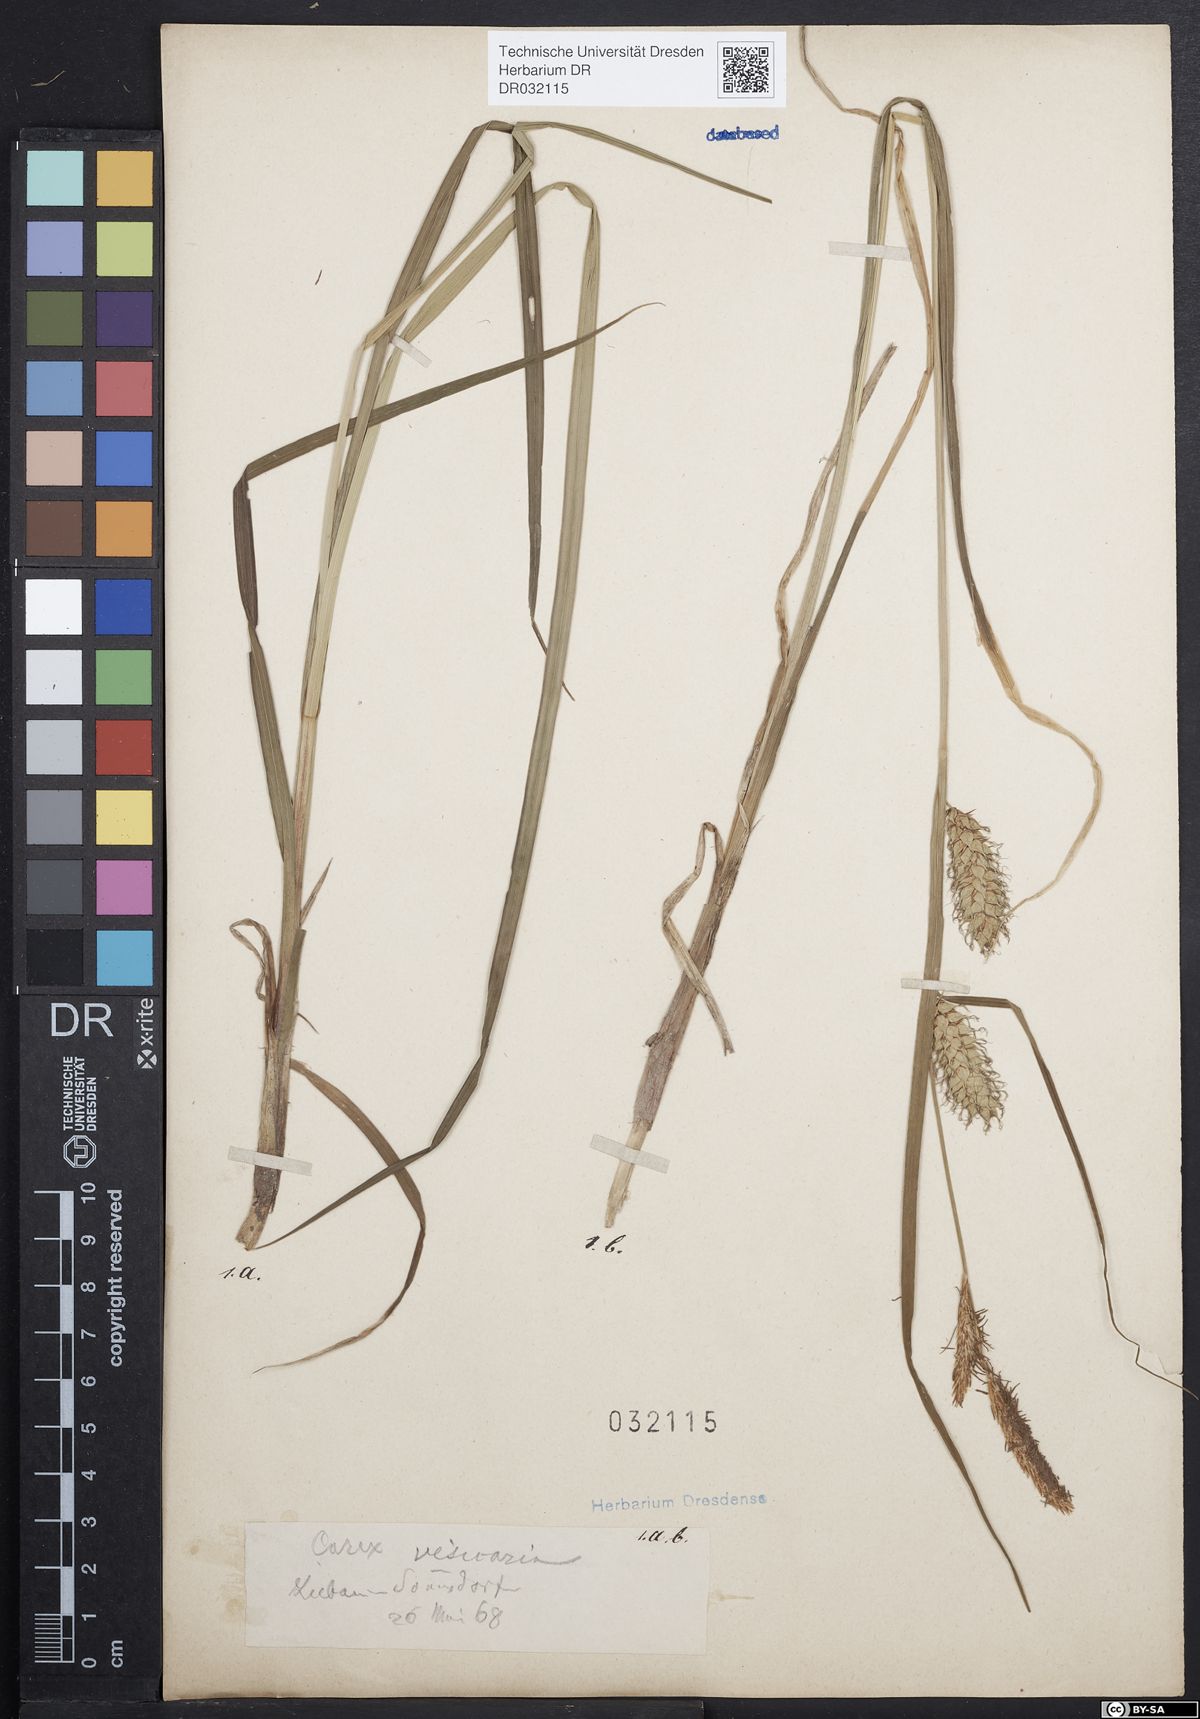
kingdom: Plantae
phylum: Tracheophyta
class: Liliopsida
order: Poales
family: Cyperaceae
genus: Carex
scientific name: Carex vesicaria
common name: Bladder-sedge
